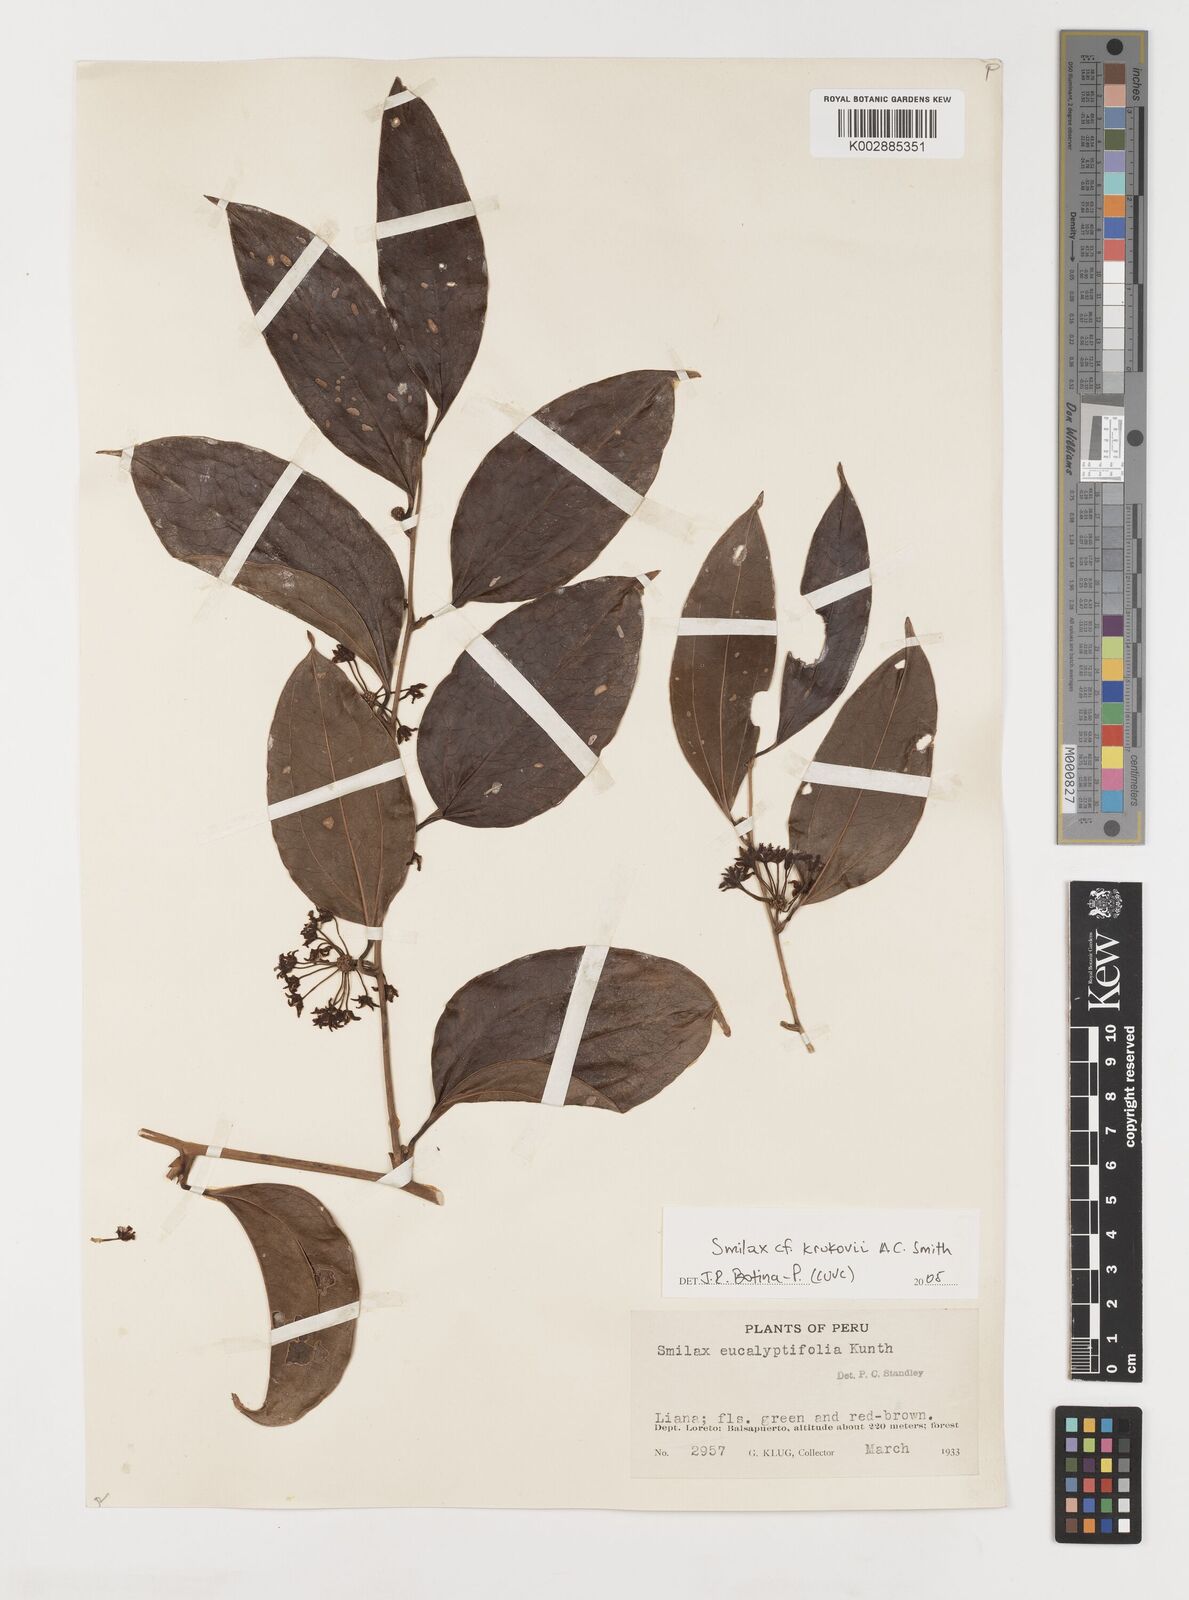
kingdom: Plantae
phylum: Tracheophyta
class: Liliopsida
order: Liliales
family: Smilacaceae
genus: Smilax
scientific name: Smilax domingensis
